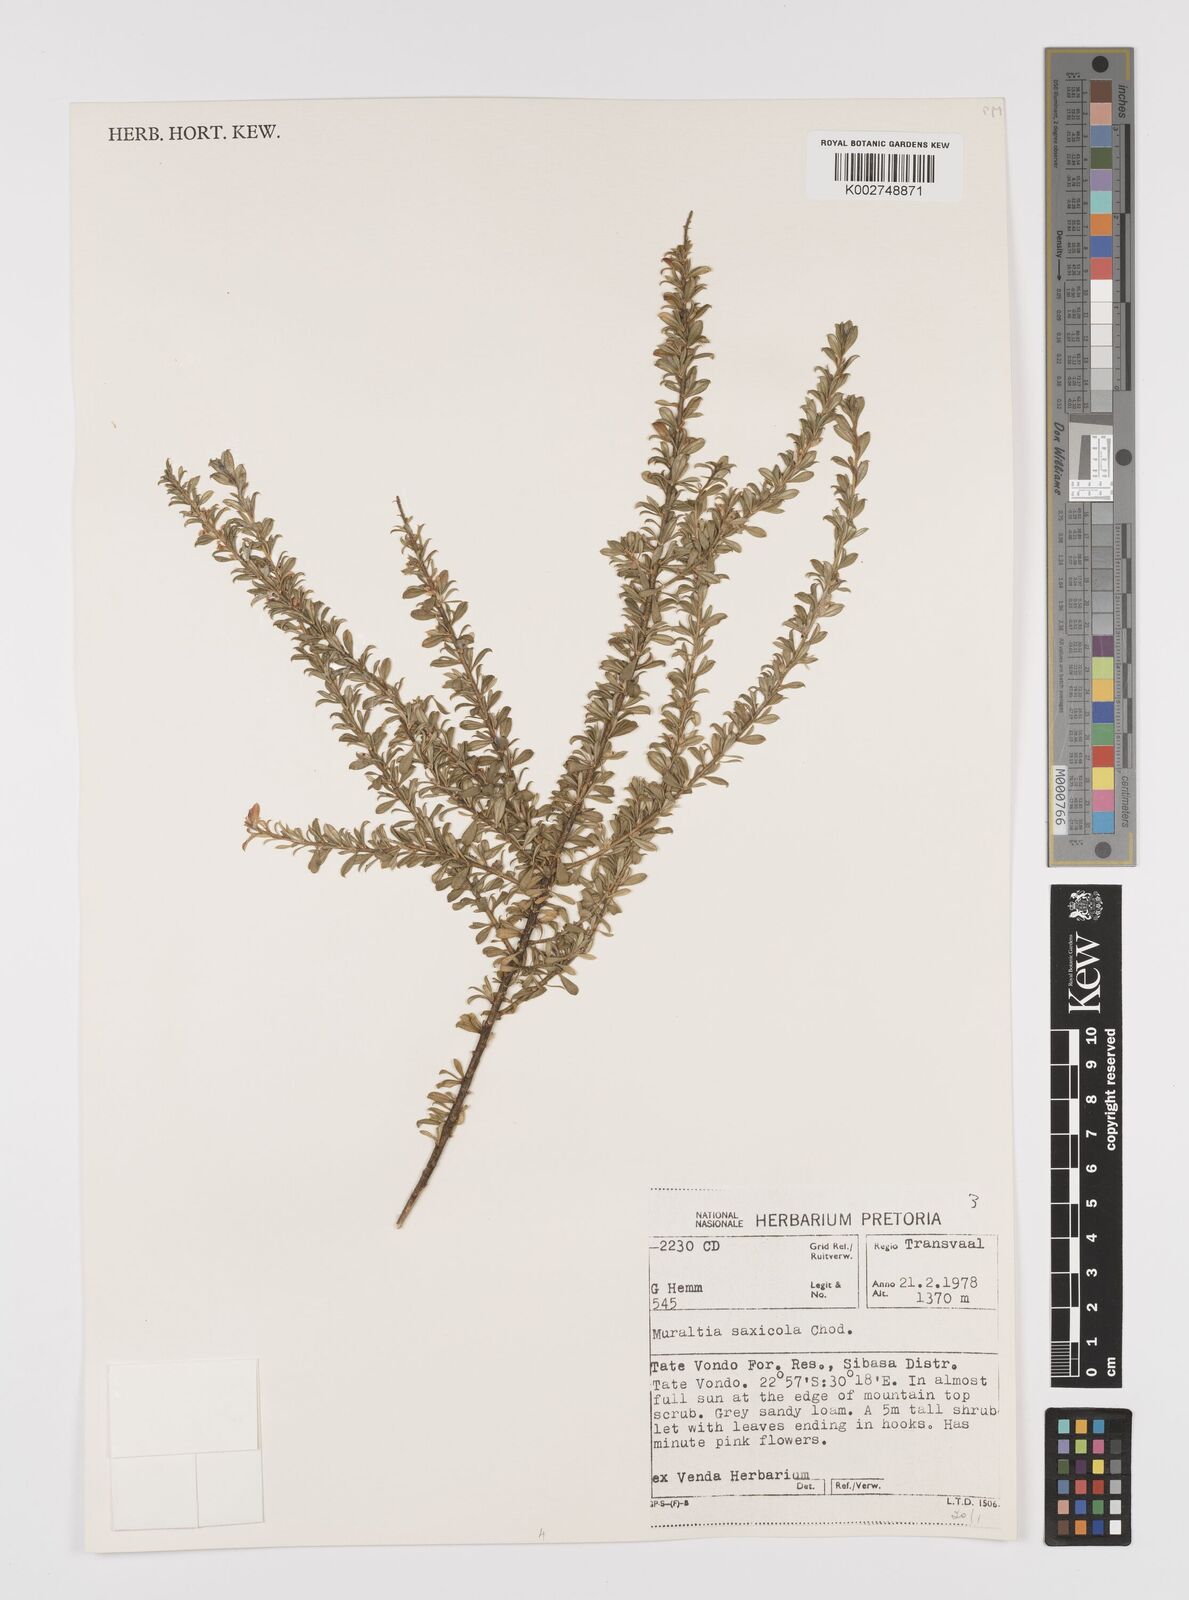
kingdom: Plantae
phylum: Tracheophyta
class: Magnoliopsida
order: Fabales
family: Polygalaceae
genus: Muraltia
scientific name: Muraltia saxicola
